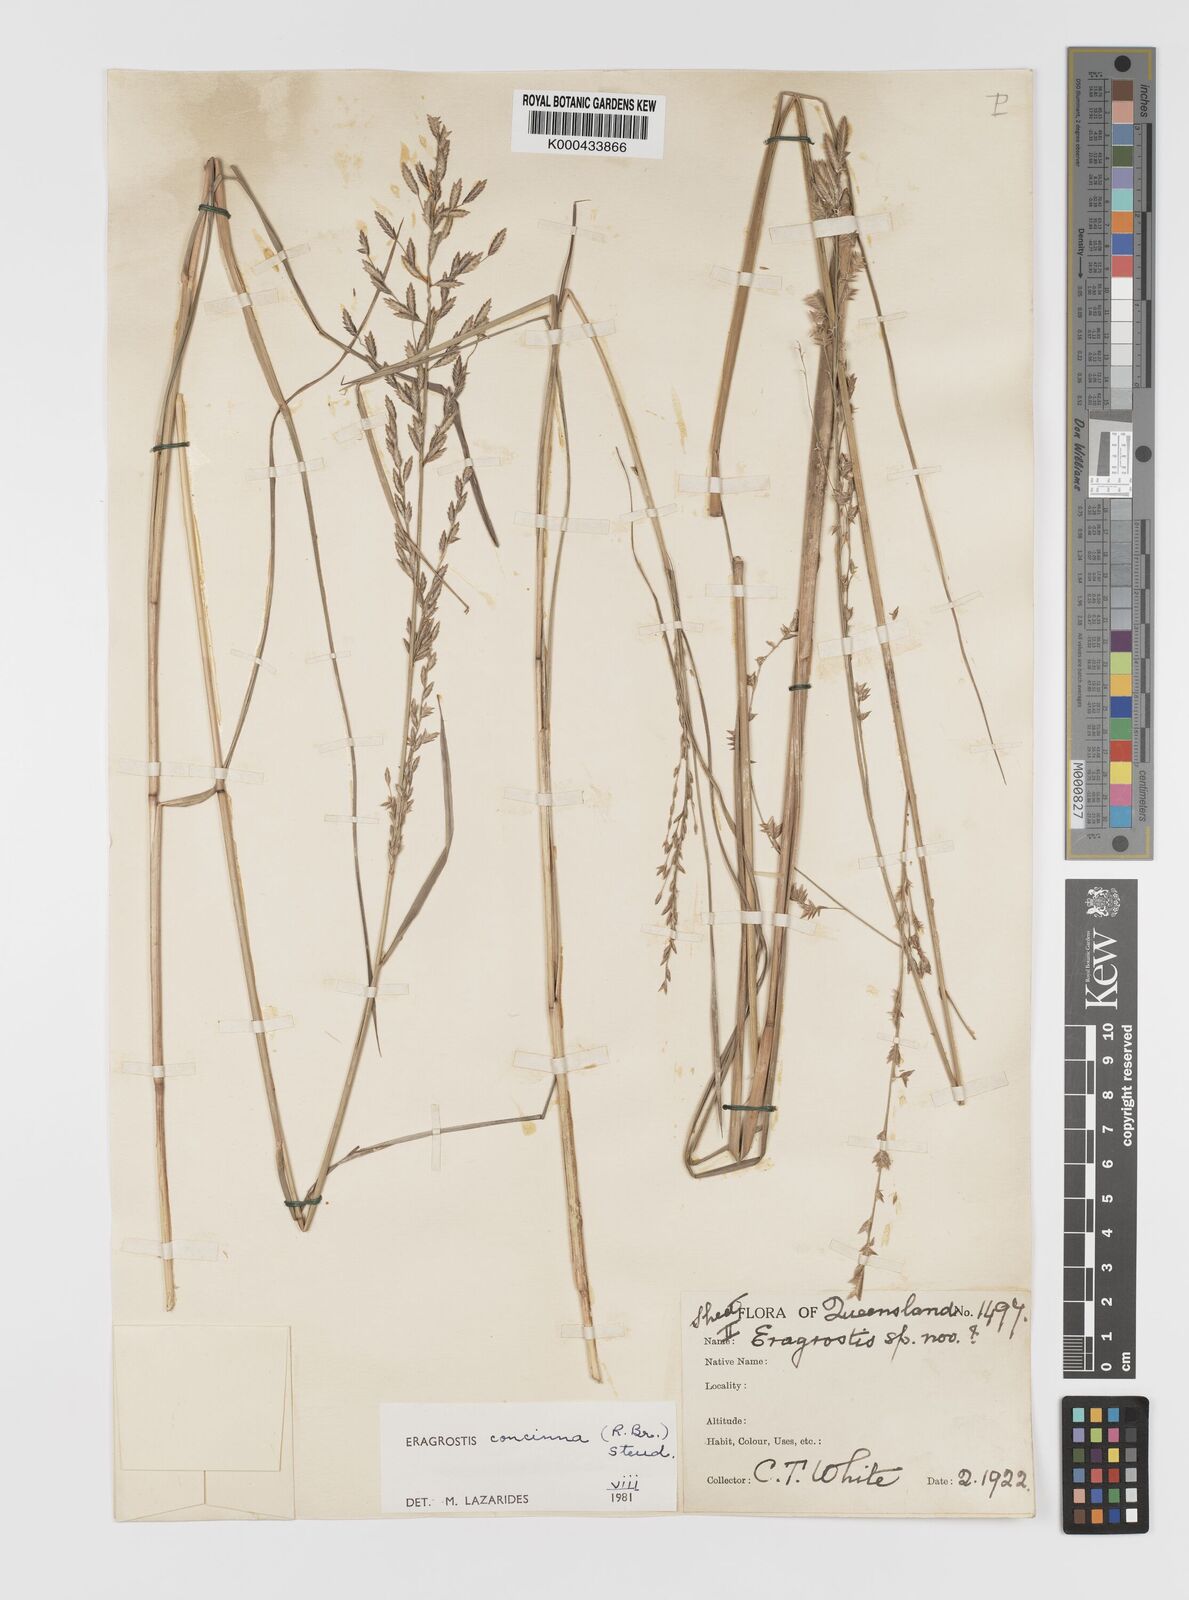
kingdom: Plantae
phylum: Tracheophyta
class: Liliopsida
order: Poales
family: Poaceae
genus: Eragrostis
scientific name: Eragrostis concinna
